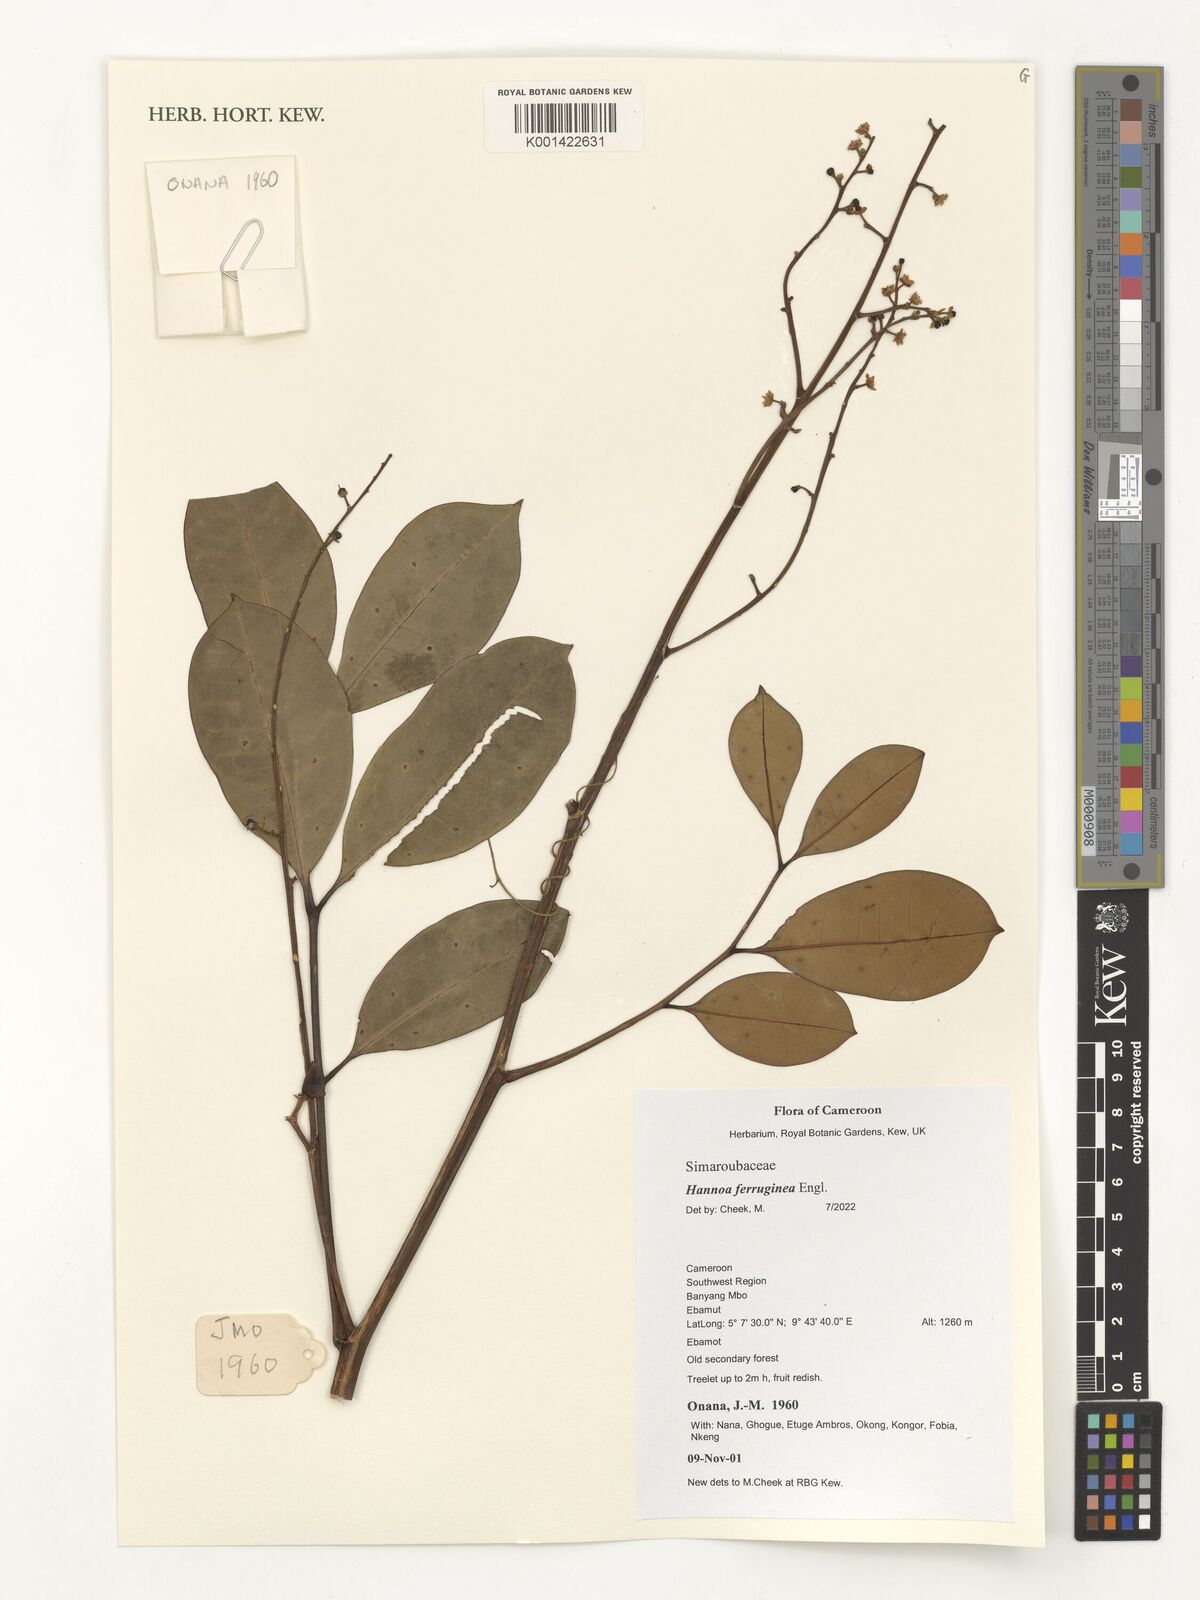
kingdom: Plantae
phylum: Tracheophyta
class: Magnoliopsida
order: Sapindales
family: Simaroubaceae
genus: Hannoa
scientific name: Hannoa ferruginea
